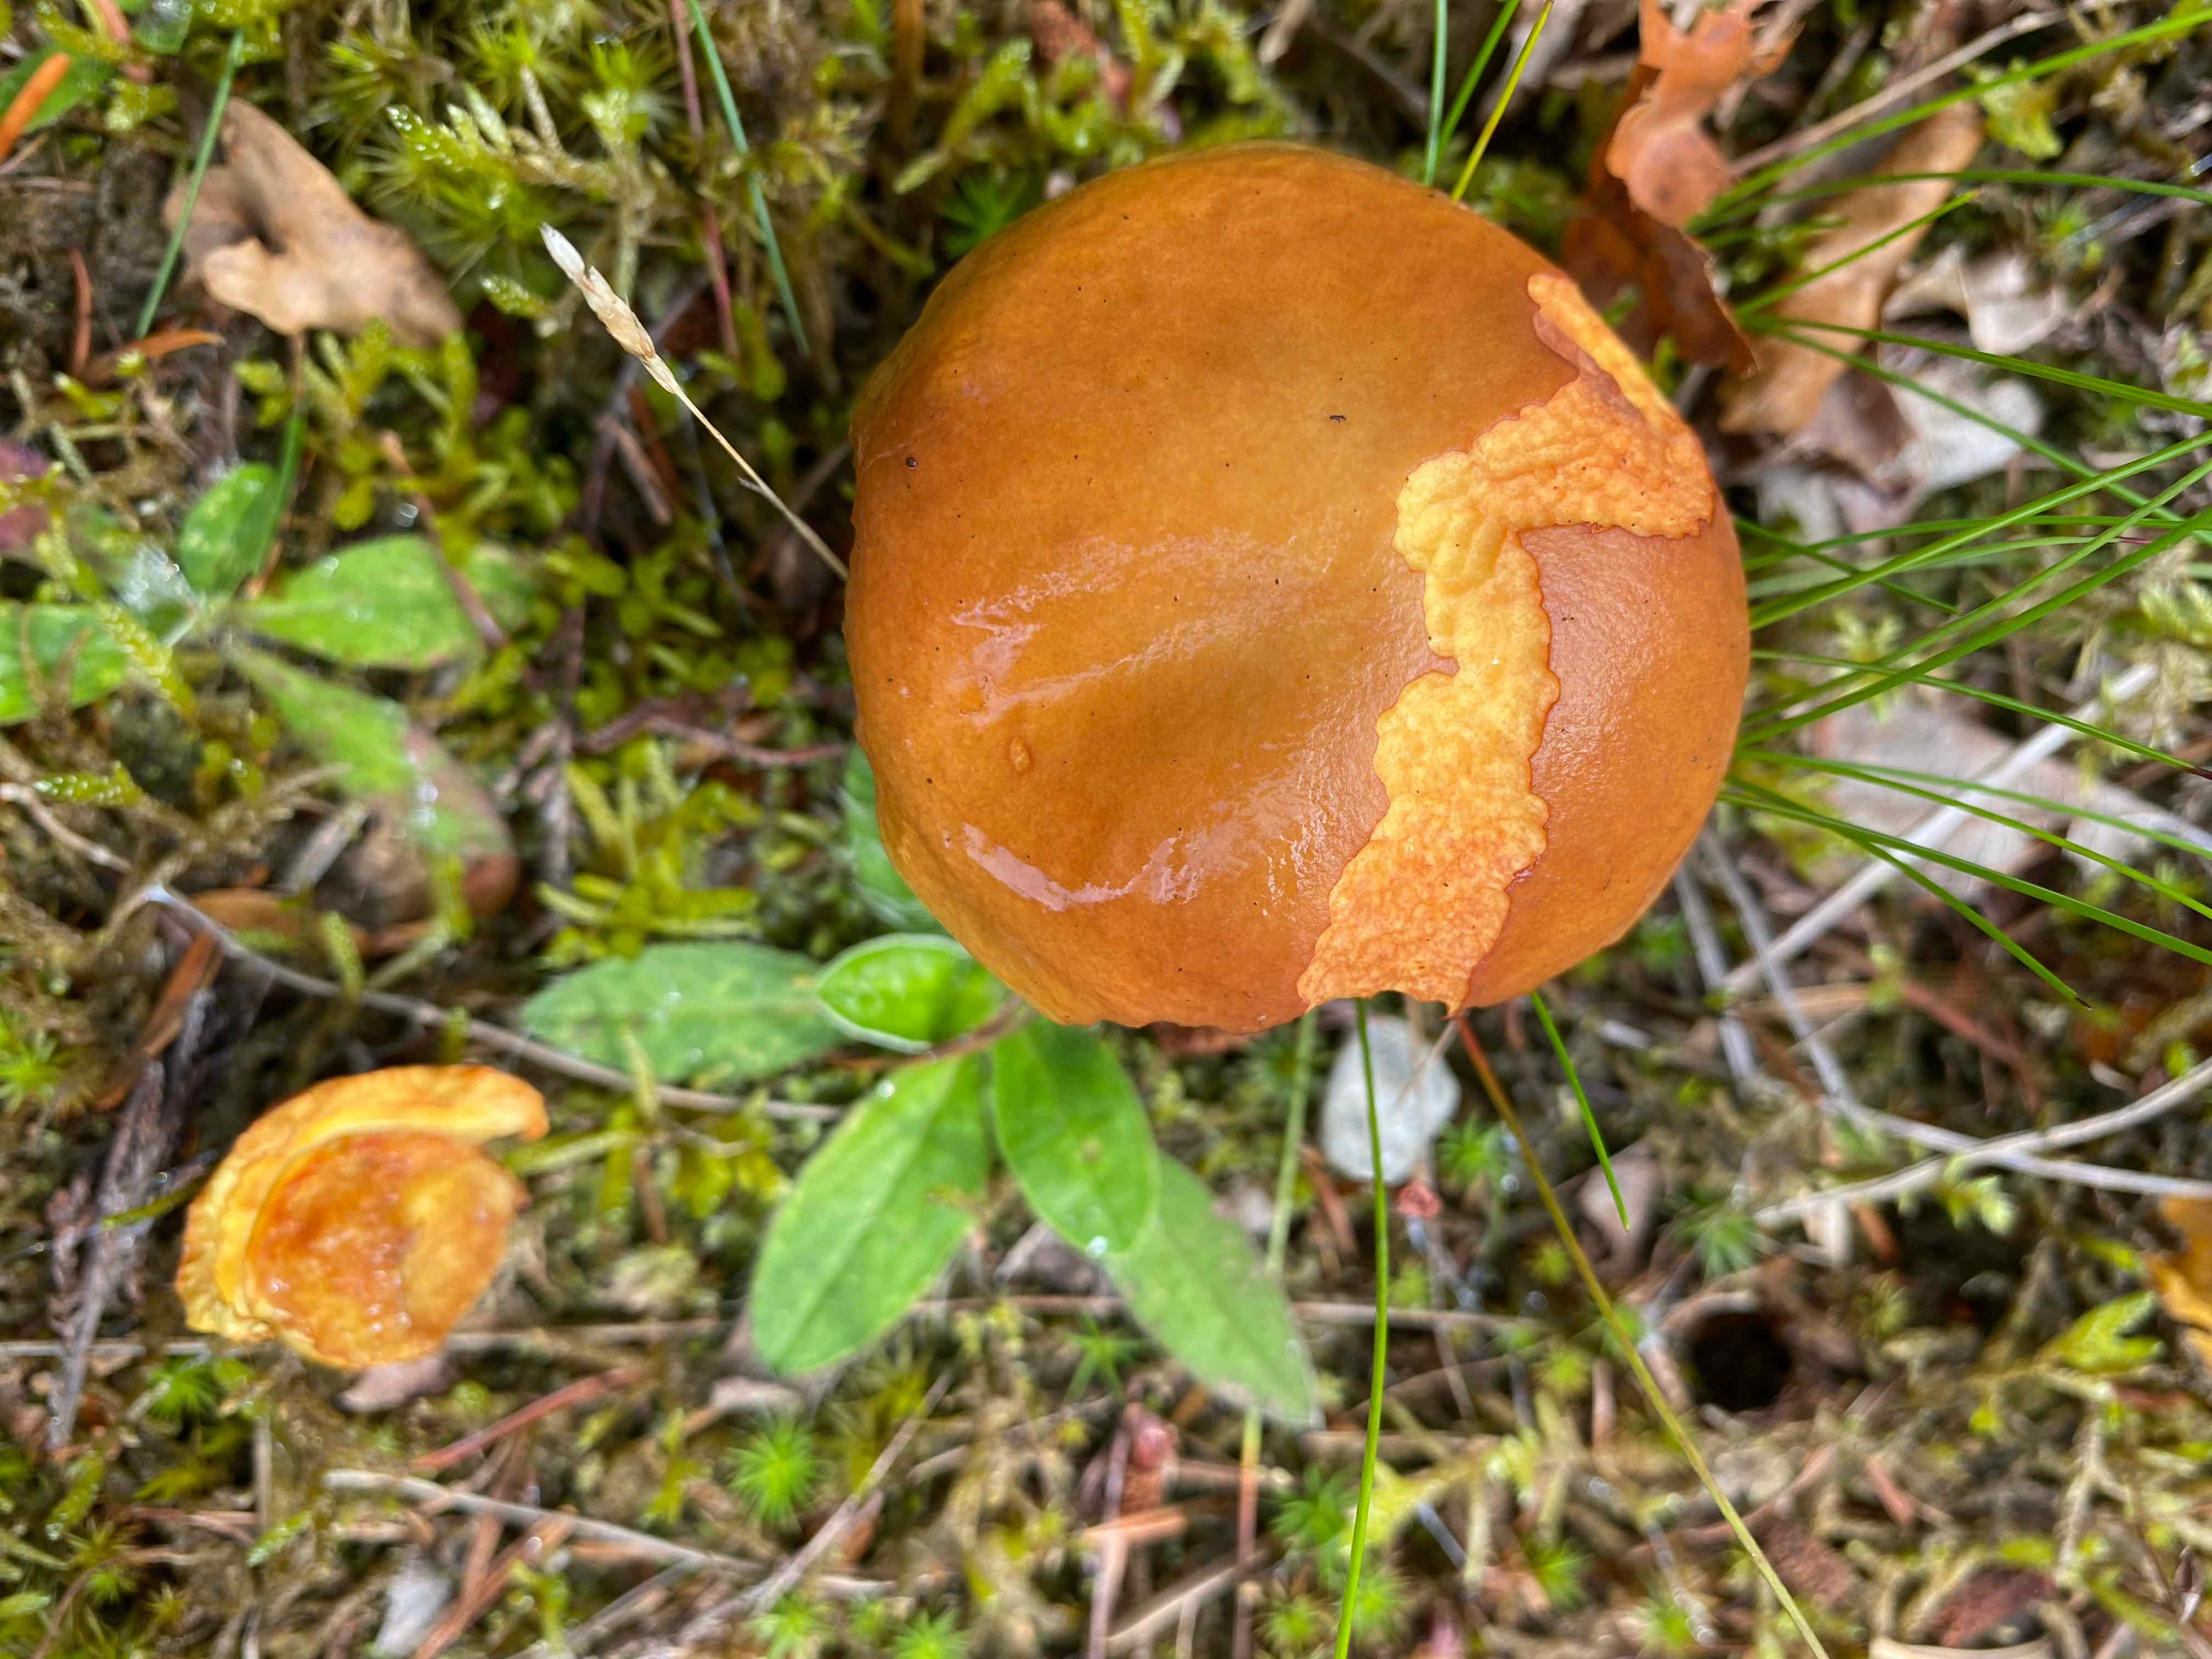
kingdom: Fungi
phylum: Basidiomycota
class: Agaricomycetes
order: Boletales
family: Suillaceae
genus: Suillus
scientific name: Suillus grevillei
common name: lærke-slimrørhat
